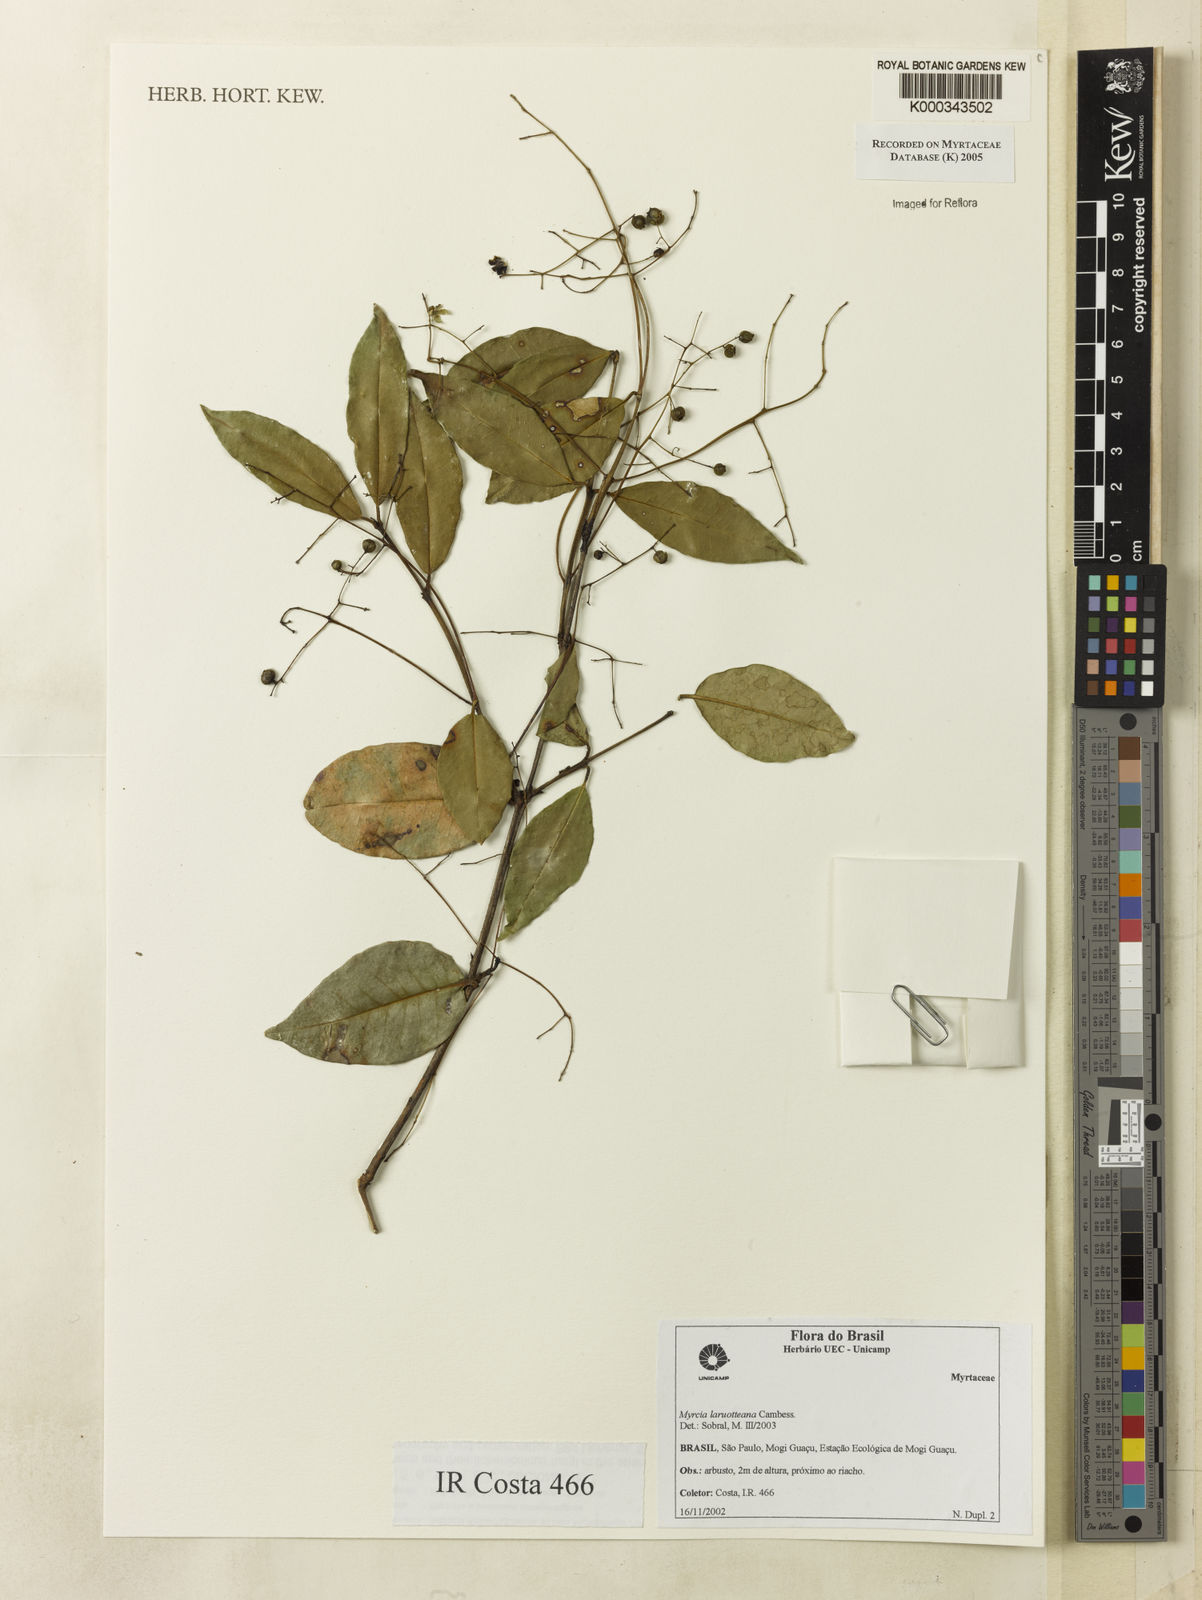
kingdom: Plantae
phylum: Tracheophyta
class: Magnoliopsida
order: Myrtales
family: Myrtaceae
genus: Myrcia
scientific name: Myrcia laruotteana
